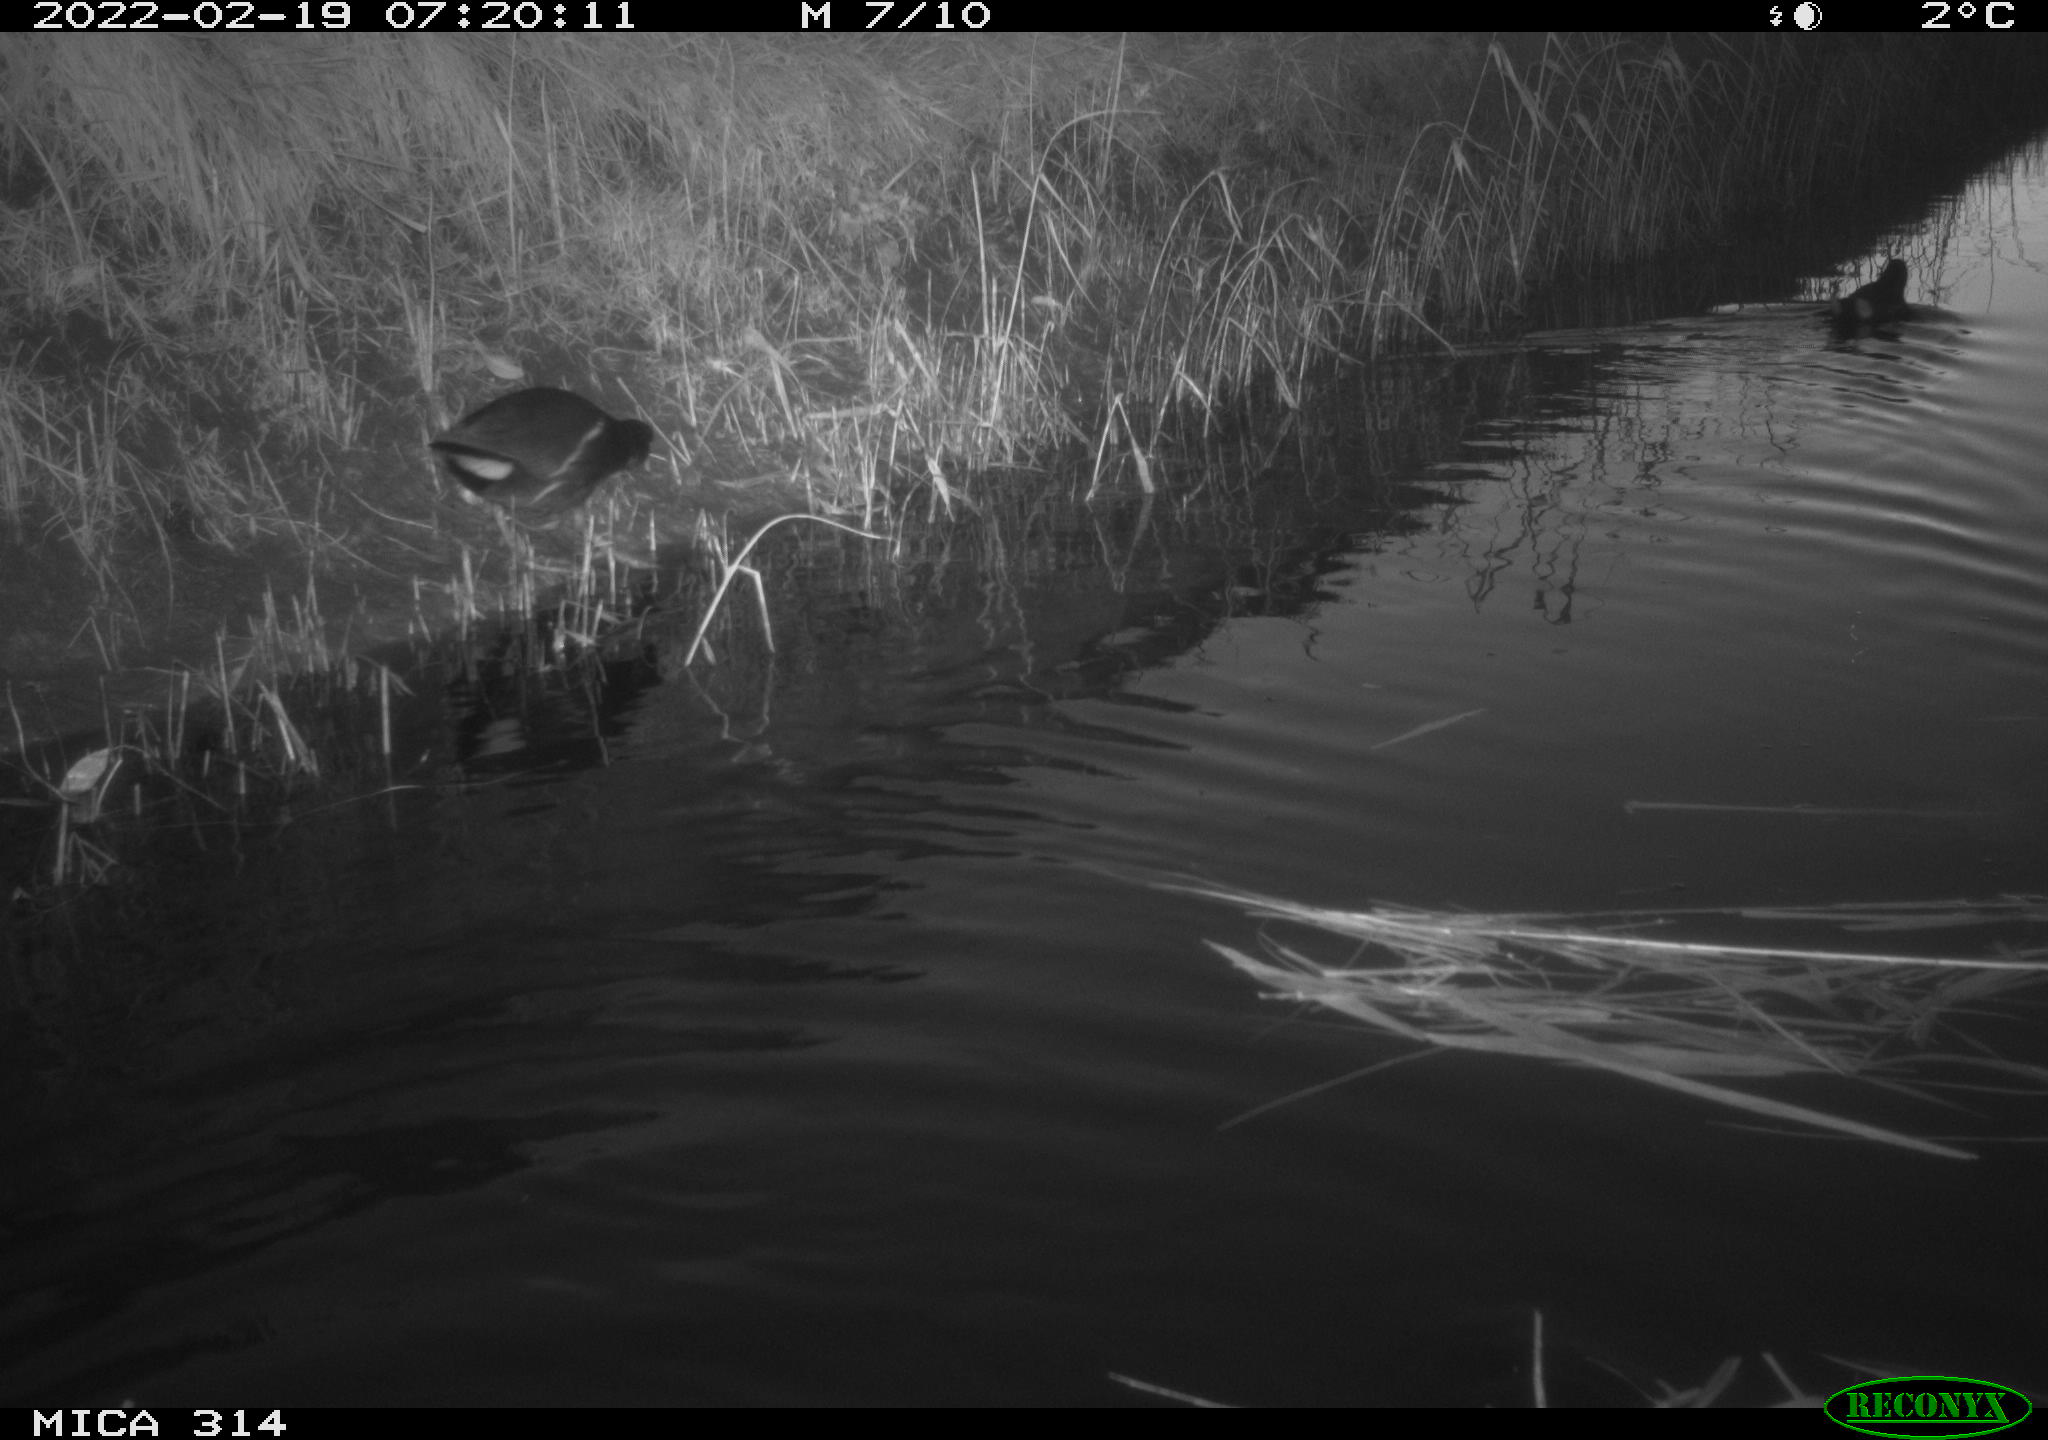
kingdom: Animalia
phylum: Chordata
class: Aves
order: Gruiformes
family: Rallidae
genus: Gallinula
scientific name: Gallinula chloropus
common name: Common moorhen
